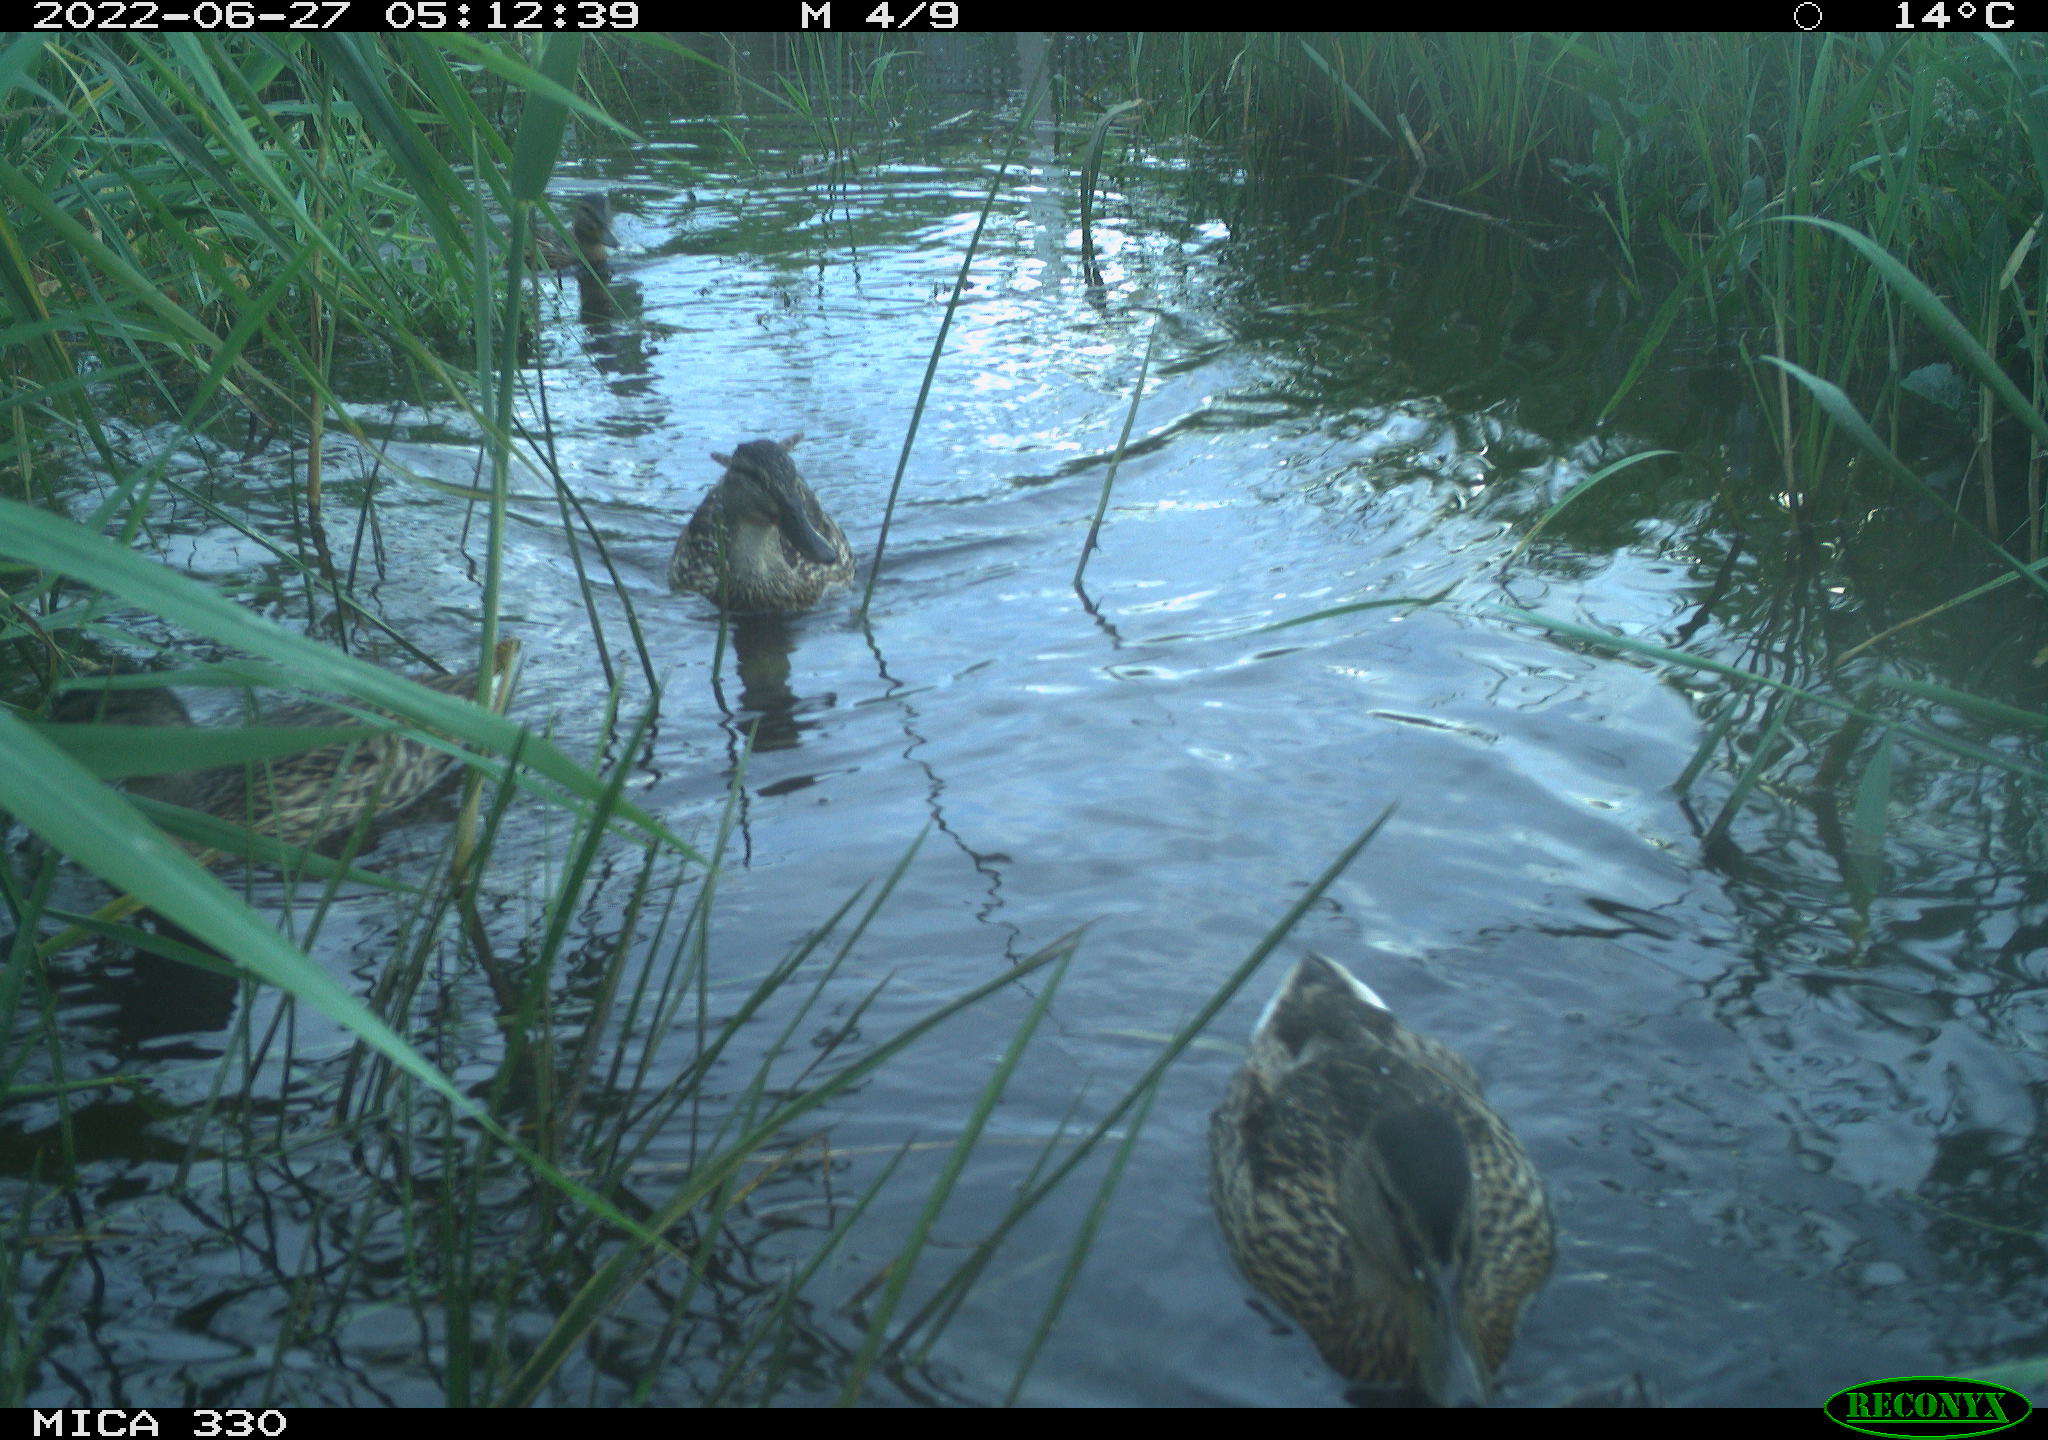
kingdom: Animalia
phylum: Chordata
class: Aves
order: Gruiformes
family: Rallidae
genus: Gallinula
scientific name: Gallinula chloropus
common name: Common moorhen
